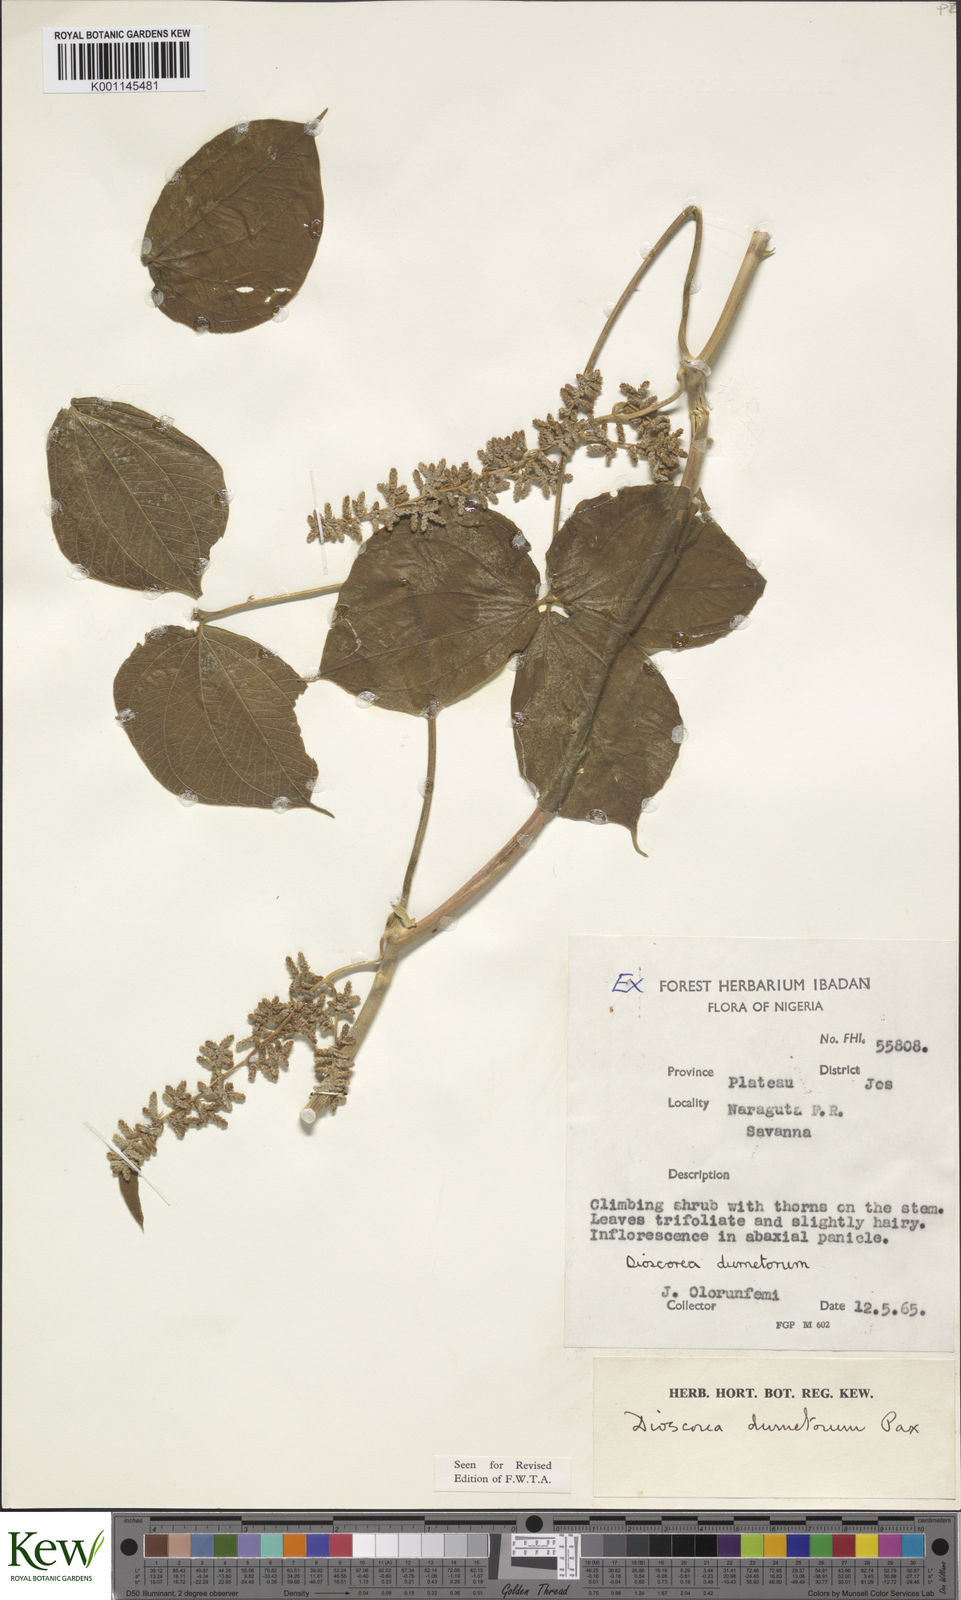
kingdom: Plantae
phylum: Tracheophyta
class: Liliopsida
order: Dioscoreales
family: Dioscoreaceae
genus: Dioscorea
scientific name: Dioscorea dumetorum
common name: African bitter yam
